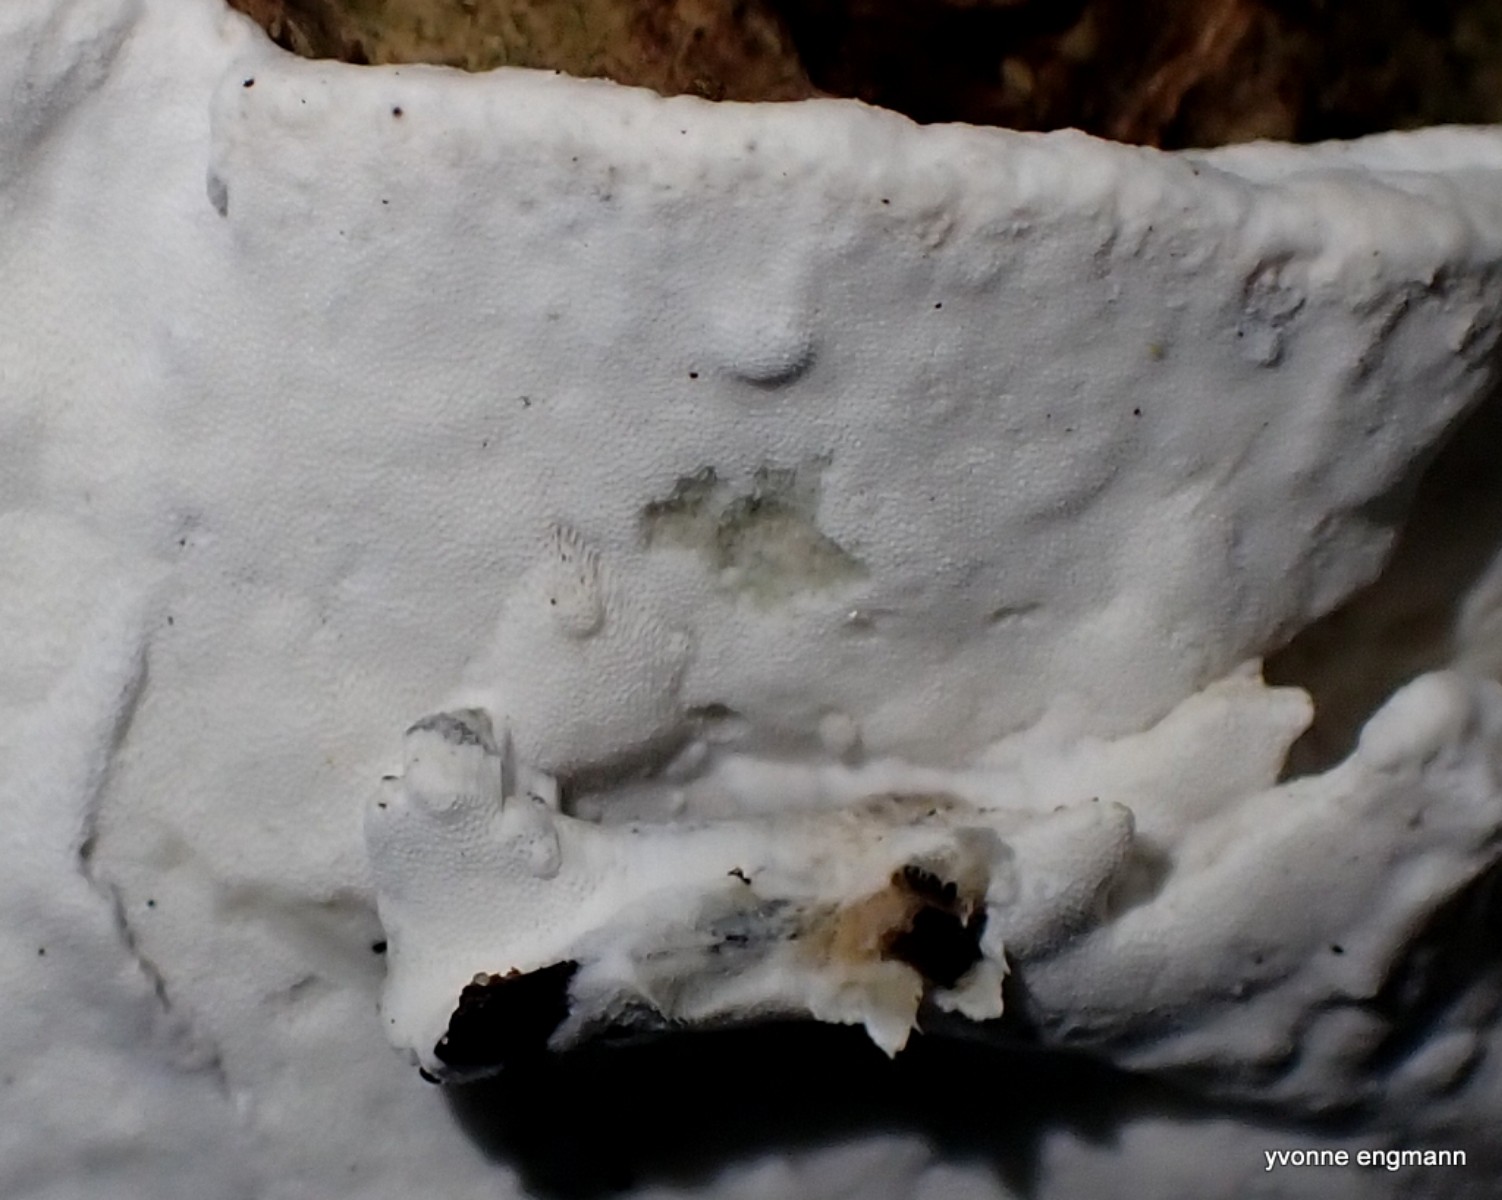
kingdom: Fungi
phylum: Basidiomycota
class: Agaricomycetes
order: Polyporales
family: Incrustoporiaceae
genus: Skeletocutis
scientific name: Skeletocutis nemoralis
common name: stor krystalporesvamp
